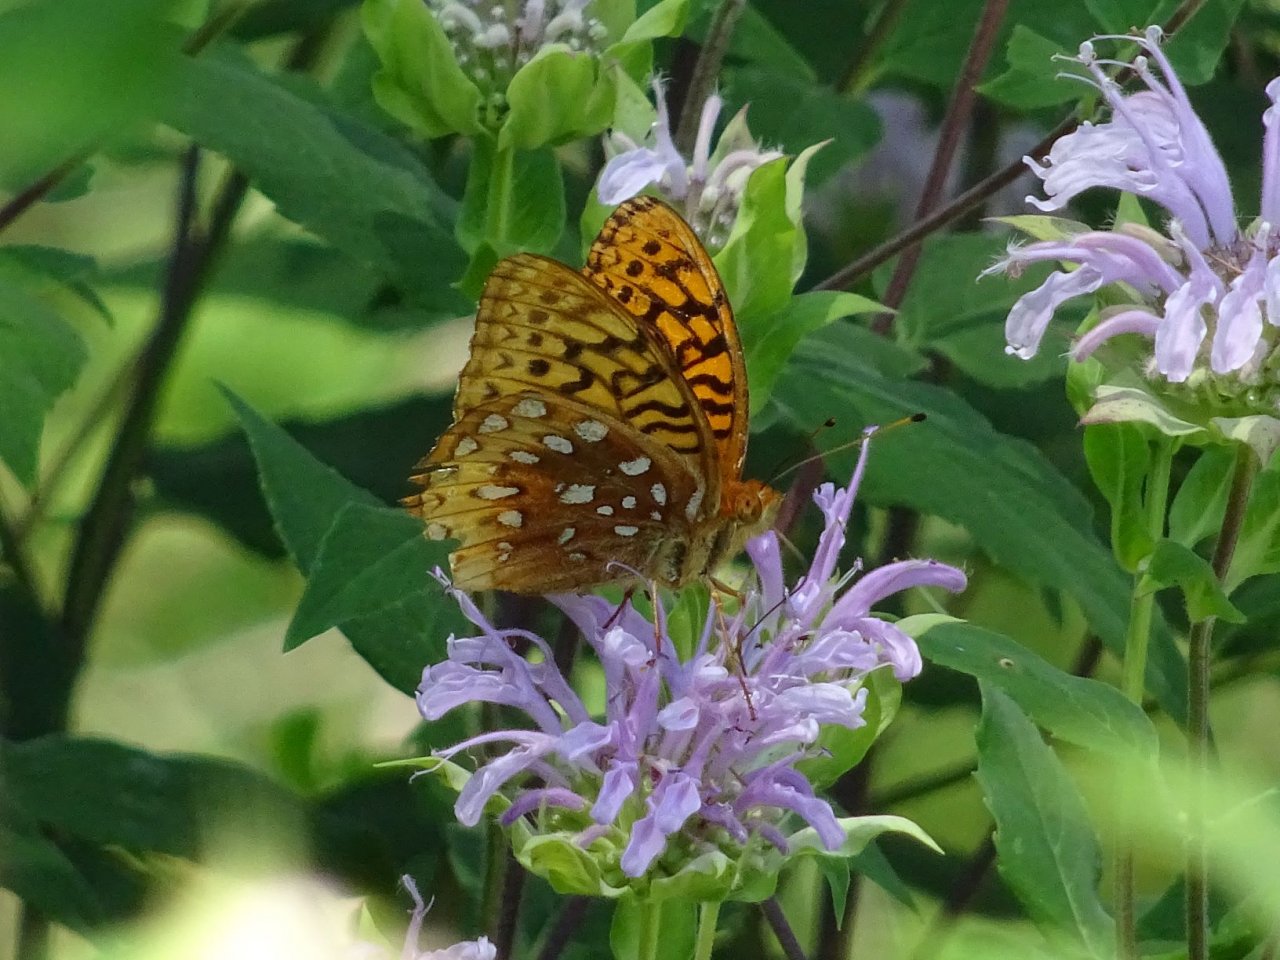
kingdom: Animalia
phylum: Arthropoda
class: Insecta
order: Lepidoptera
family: Nymphalidae
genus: Speyeria
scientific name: Speyeria cybele
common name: Great Spangled Fritillary
